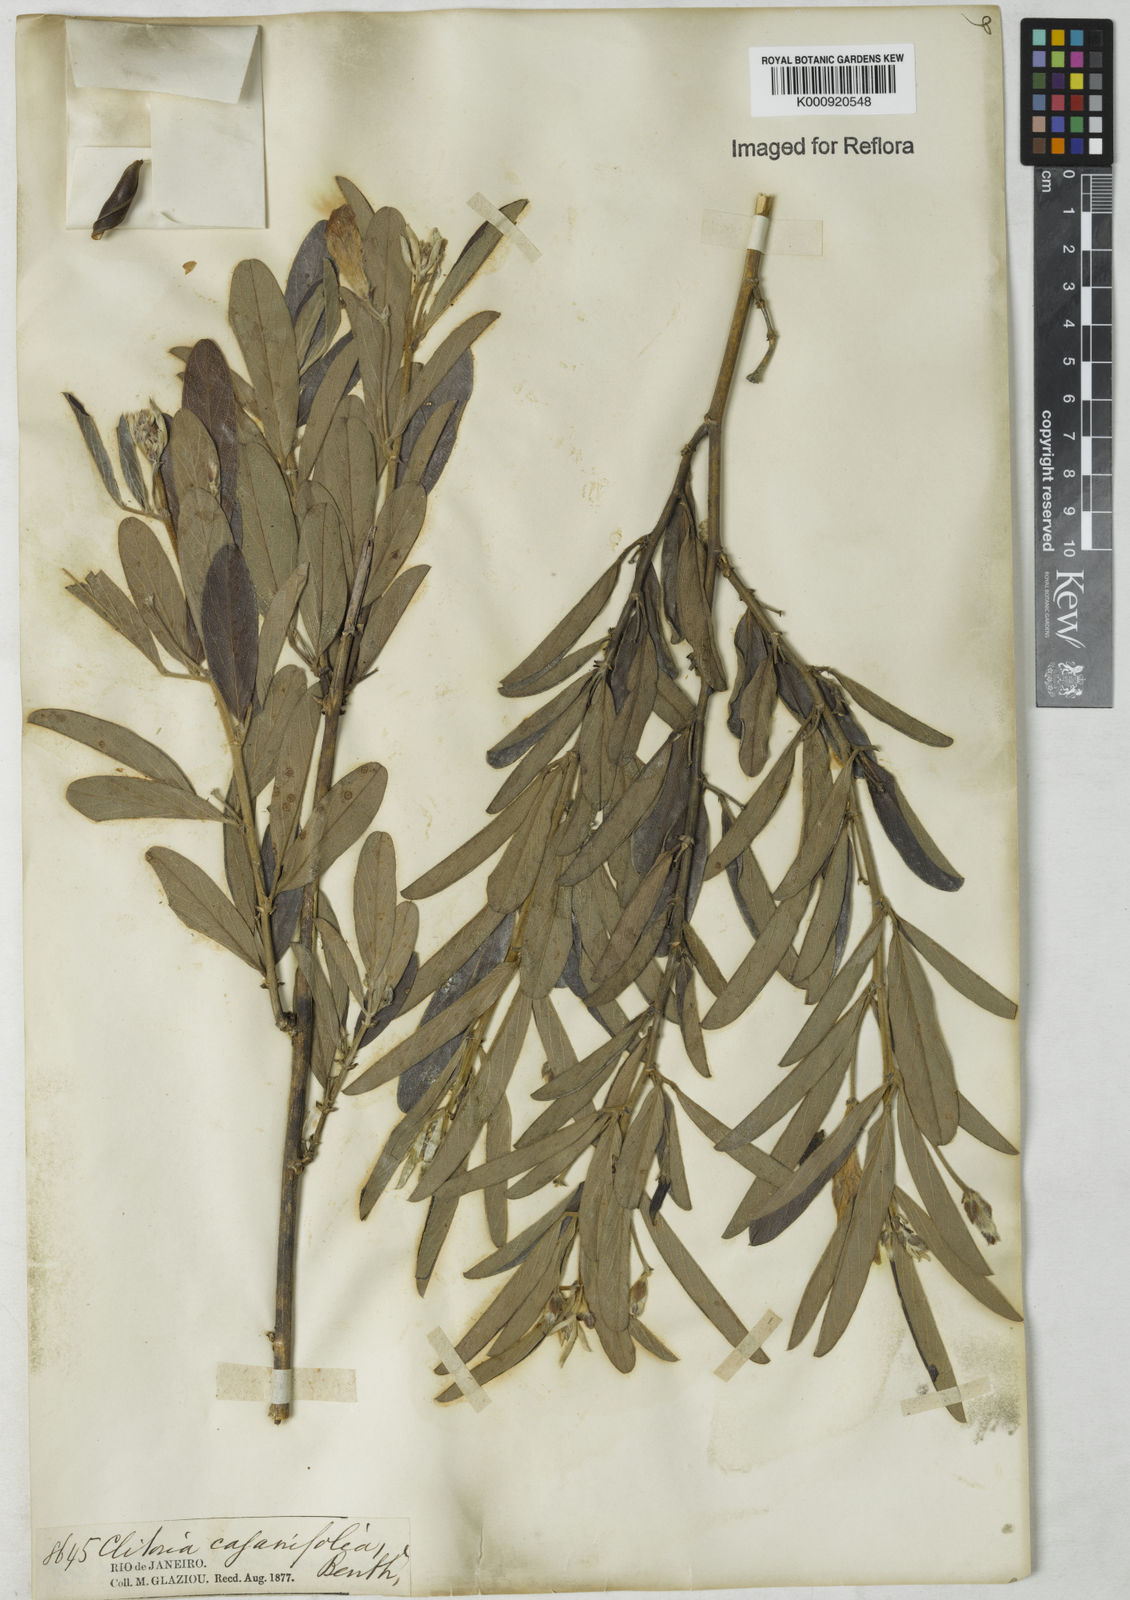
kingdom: Plantae
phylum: Tracheophyta
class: Magnoliopsida
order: Fabales
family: Fabaceae
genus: Clitoria
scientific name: Clitoria laurifolia
